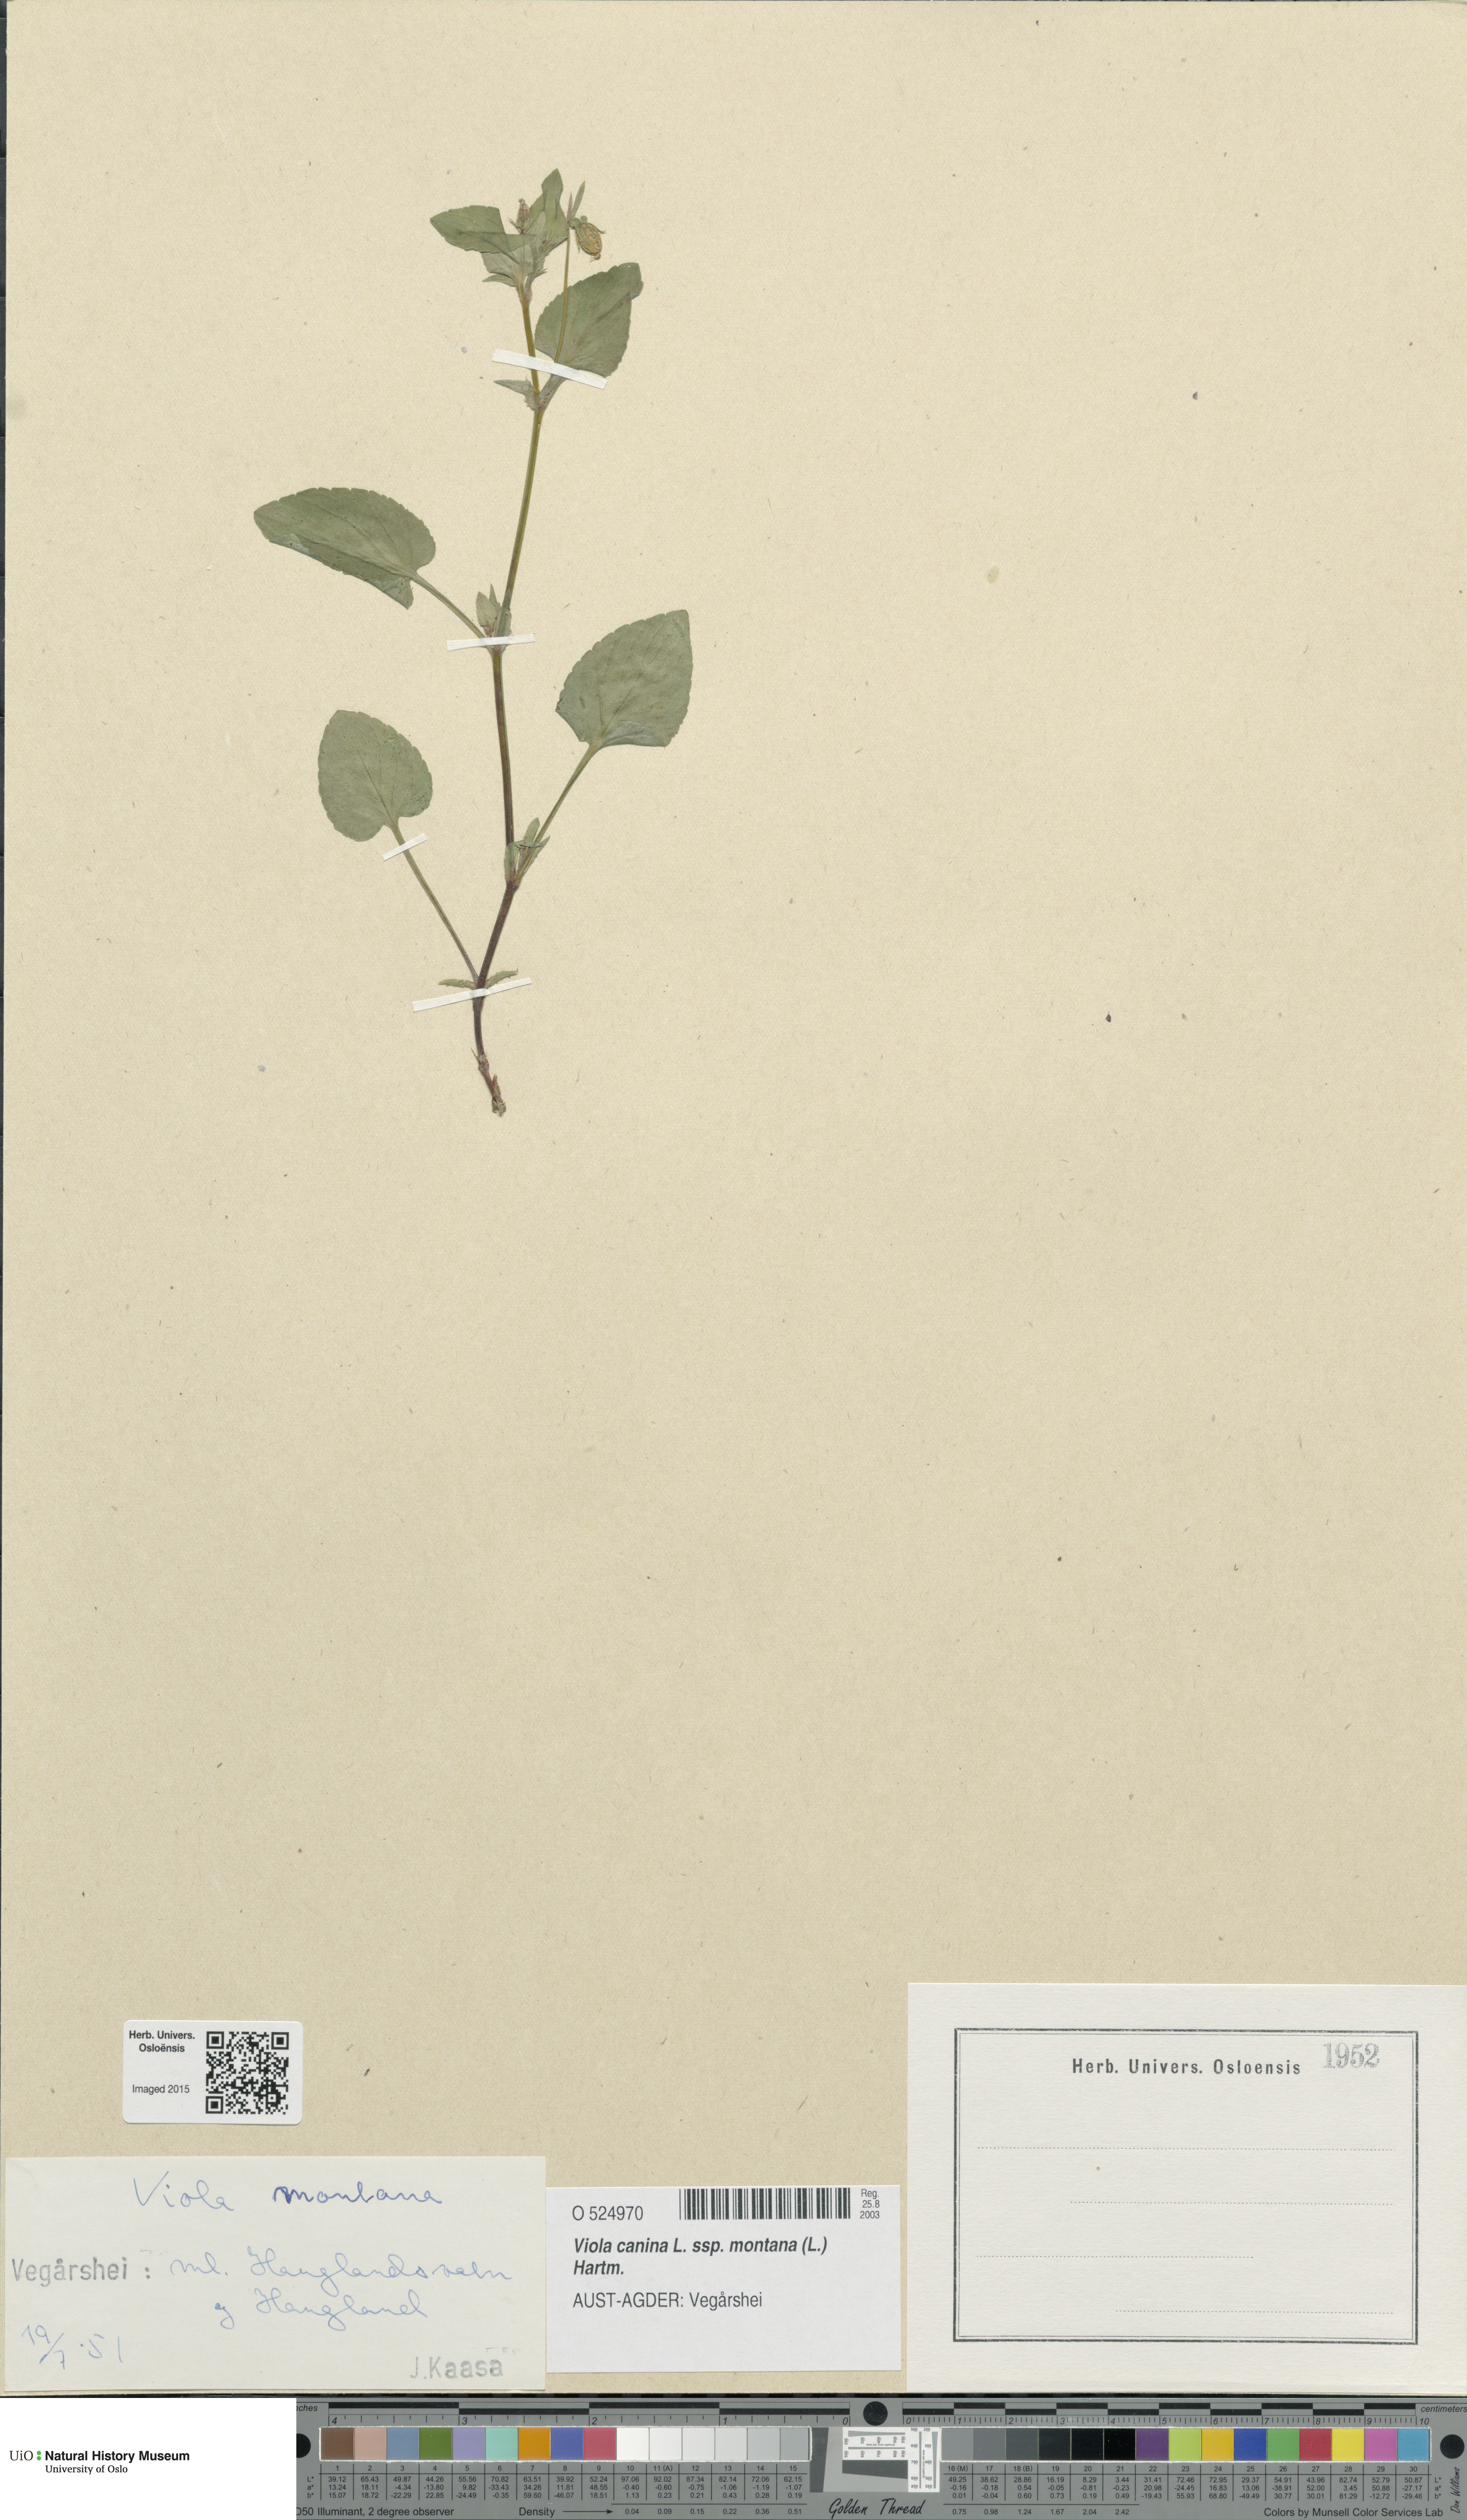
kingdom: Plantae
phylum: Tracheophyta
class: Magnoliopsida
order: Malpighiales
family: Violaceae
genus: Viola
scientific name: Viola ruppii
